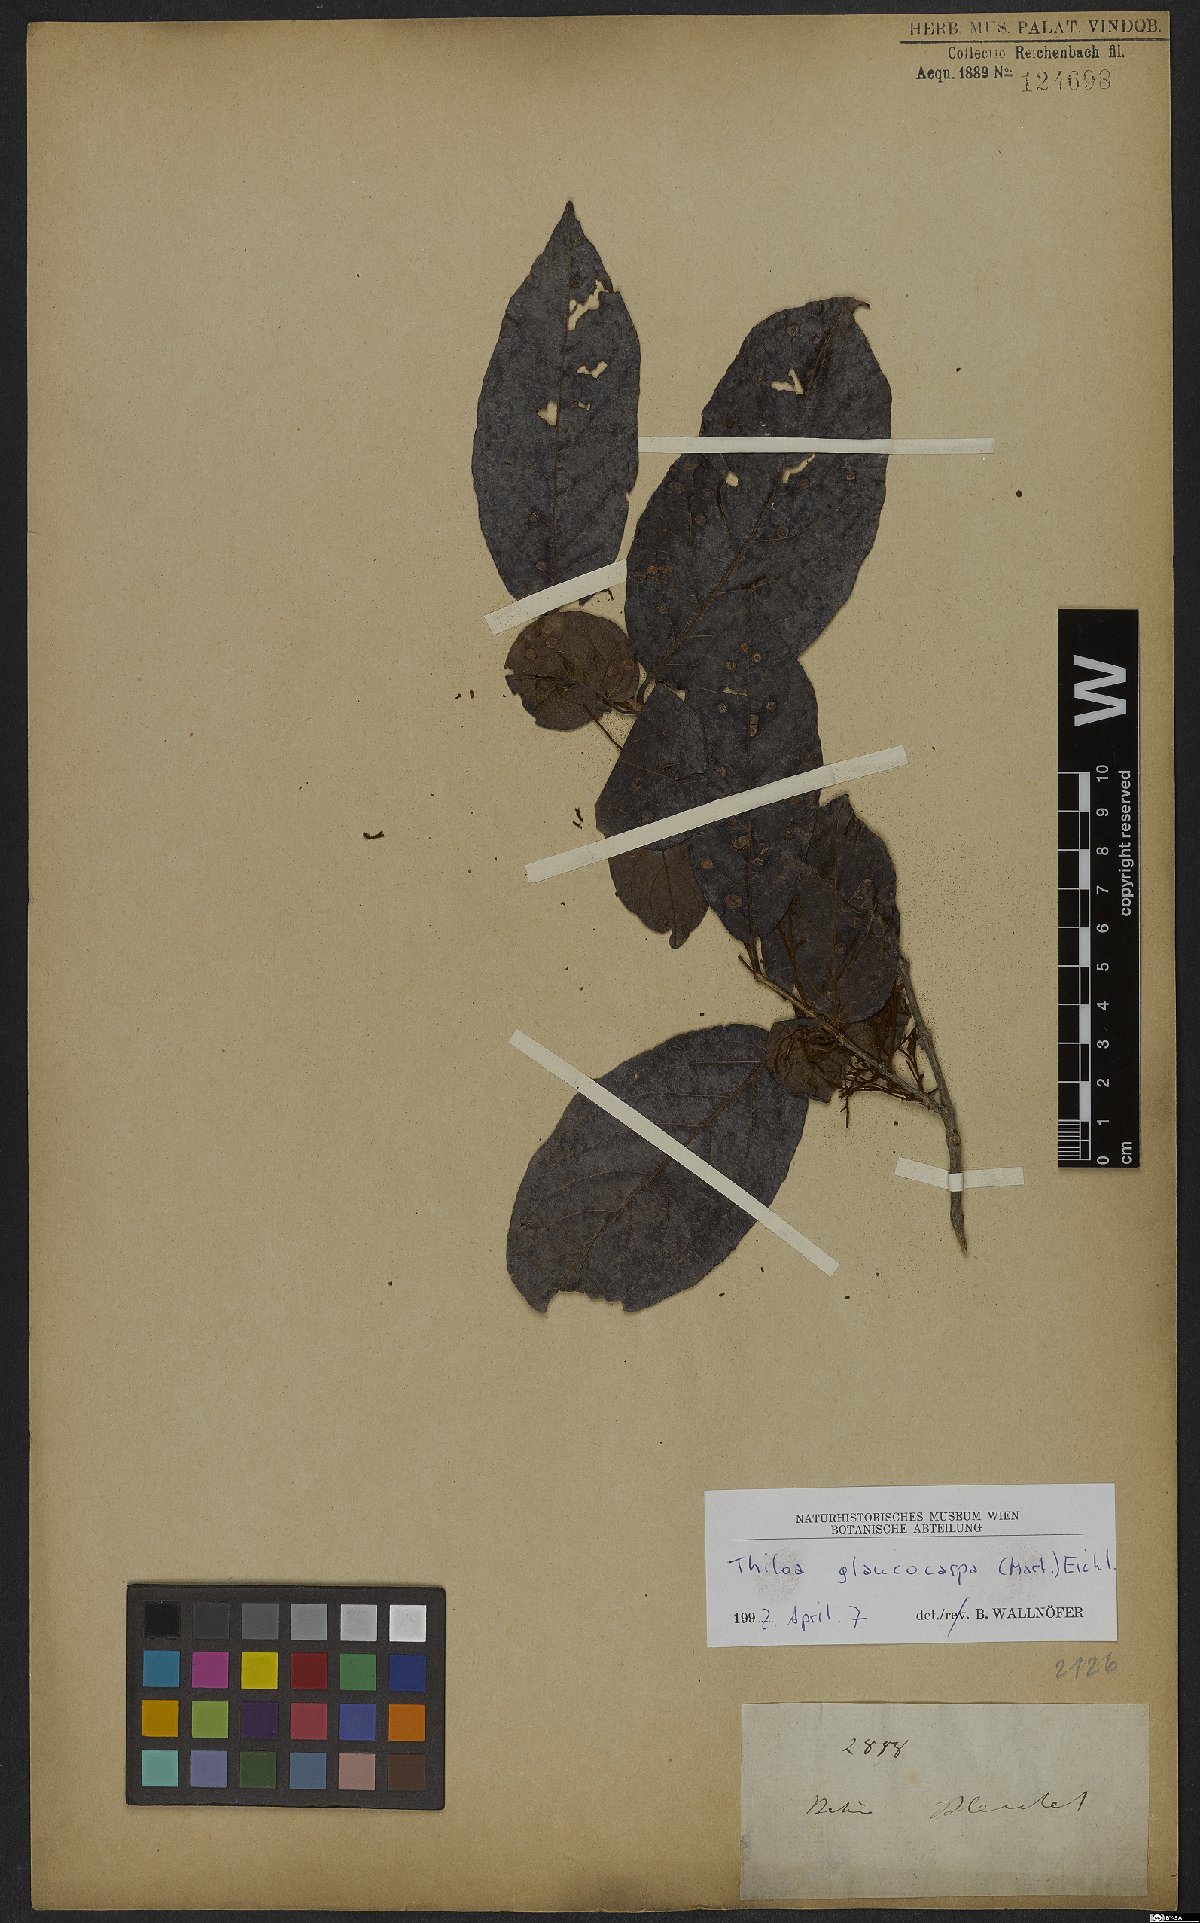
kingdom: Plantae
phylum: Tracheophyta
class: Magnoliopsida
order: Myrtales
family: Combretaceae
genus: Combretum
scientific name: Combretum glaucocarpum
